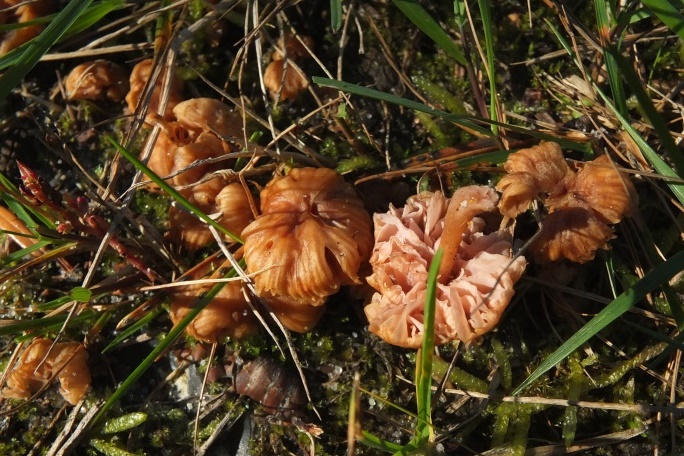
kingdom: Fungi
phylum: Basidiomycota
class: Agaricomycetes
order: Agaricales
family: Hydnangiaceae
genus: Laccaria
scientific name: Laccaria tortilis
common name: krybende ametysthat
